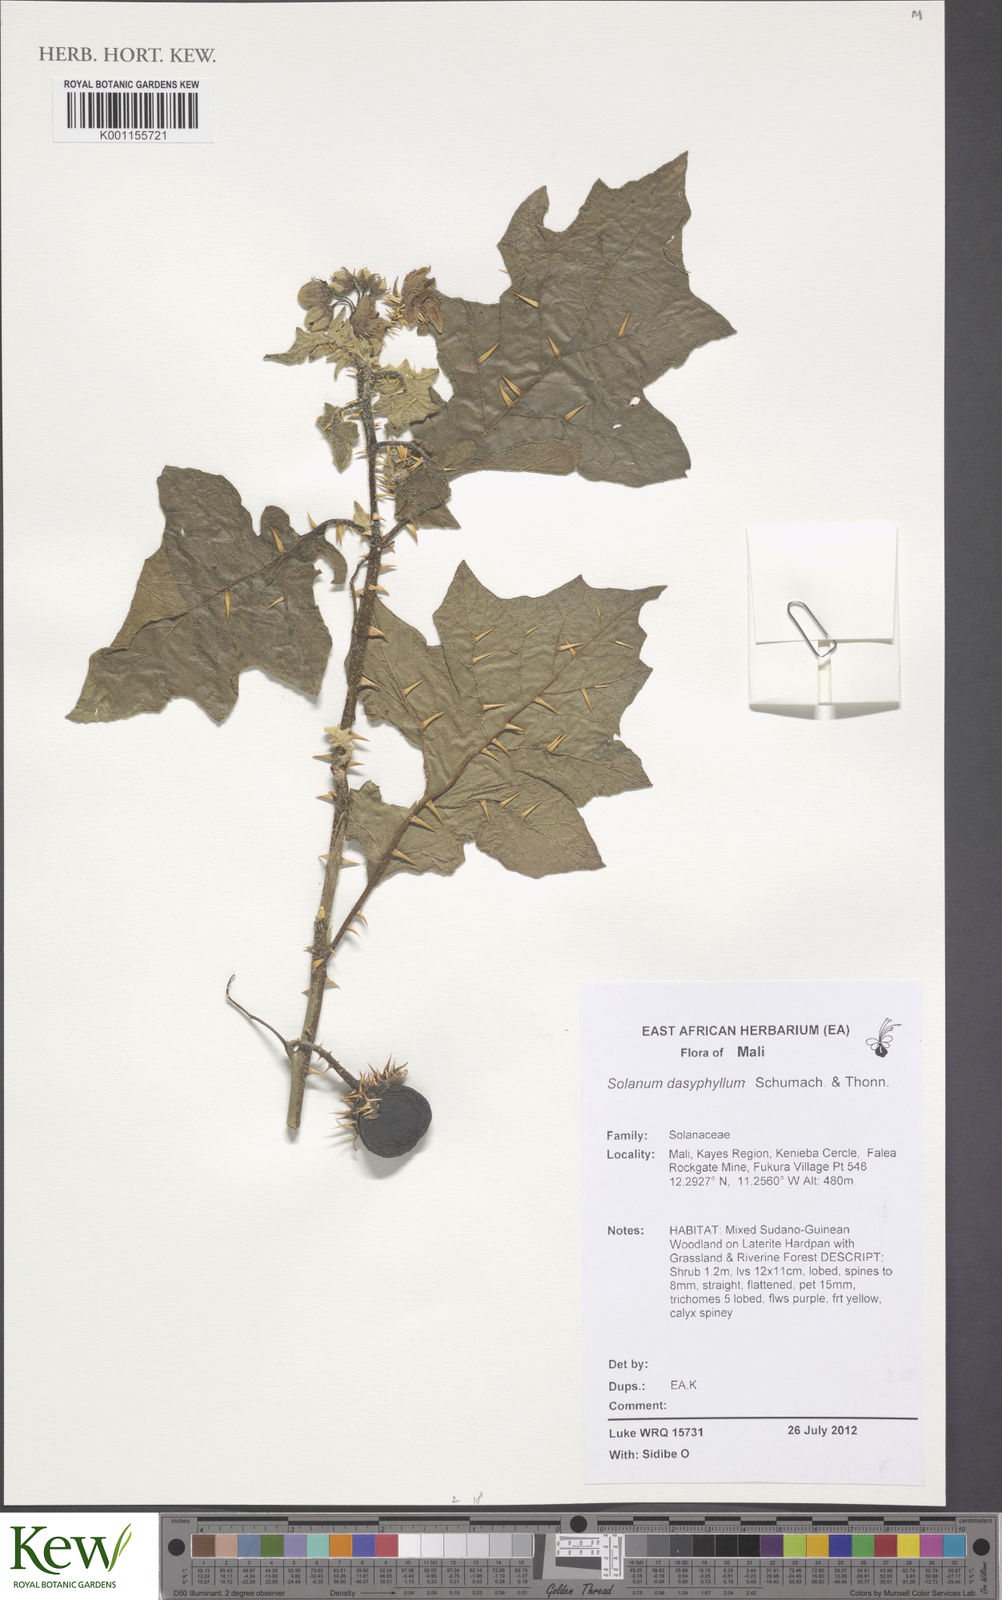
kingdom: Plantae
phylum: Tracheophyta
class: Magnoliopsida
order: Solanales
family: Solanaceae
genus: Solanum
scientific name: Solanum dasyphyllum
